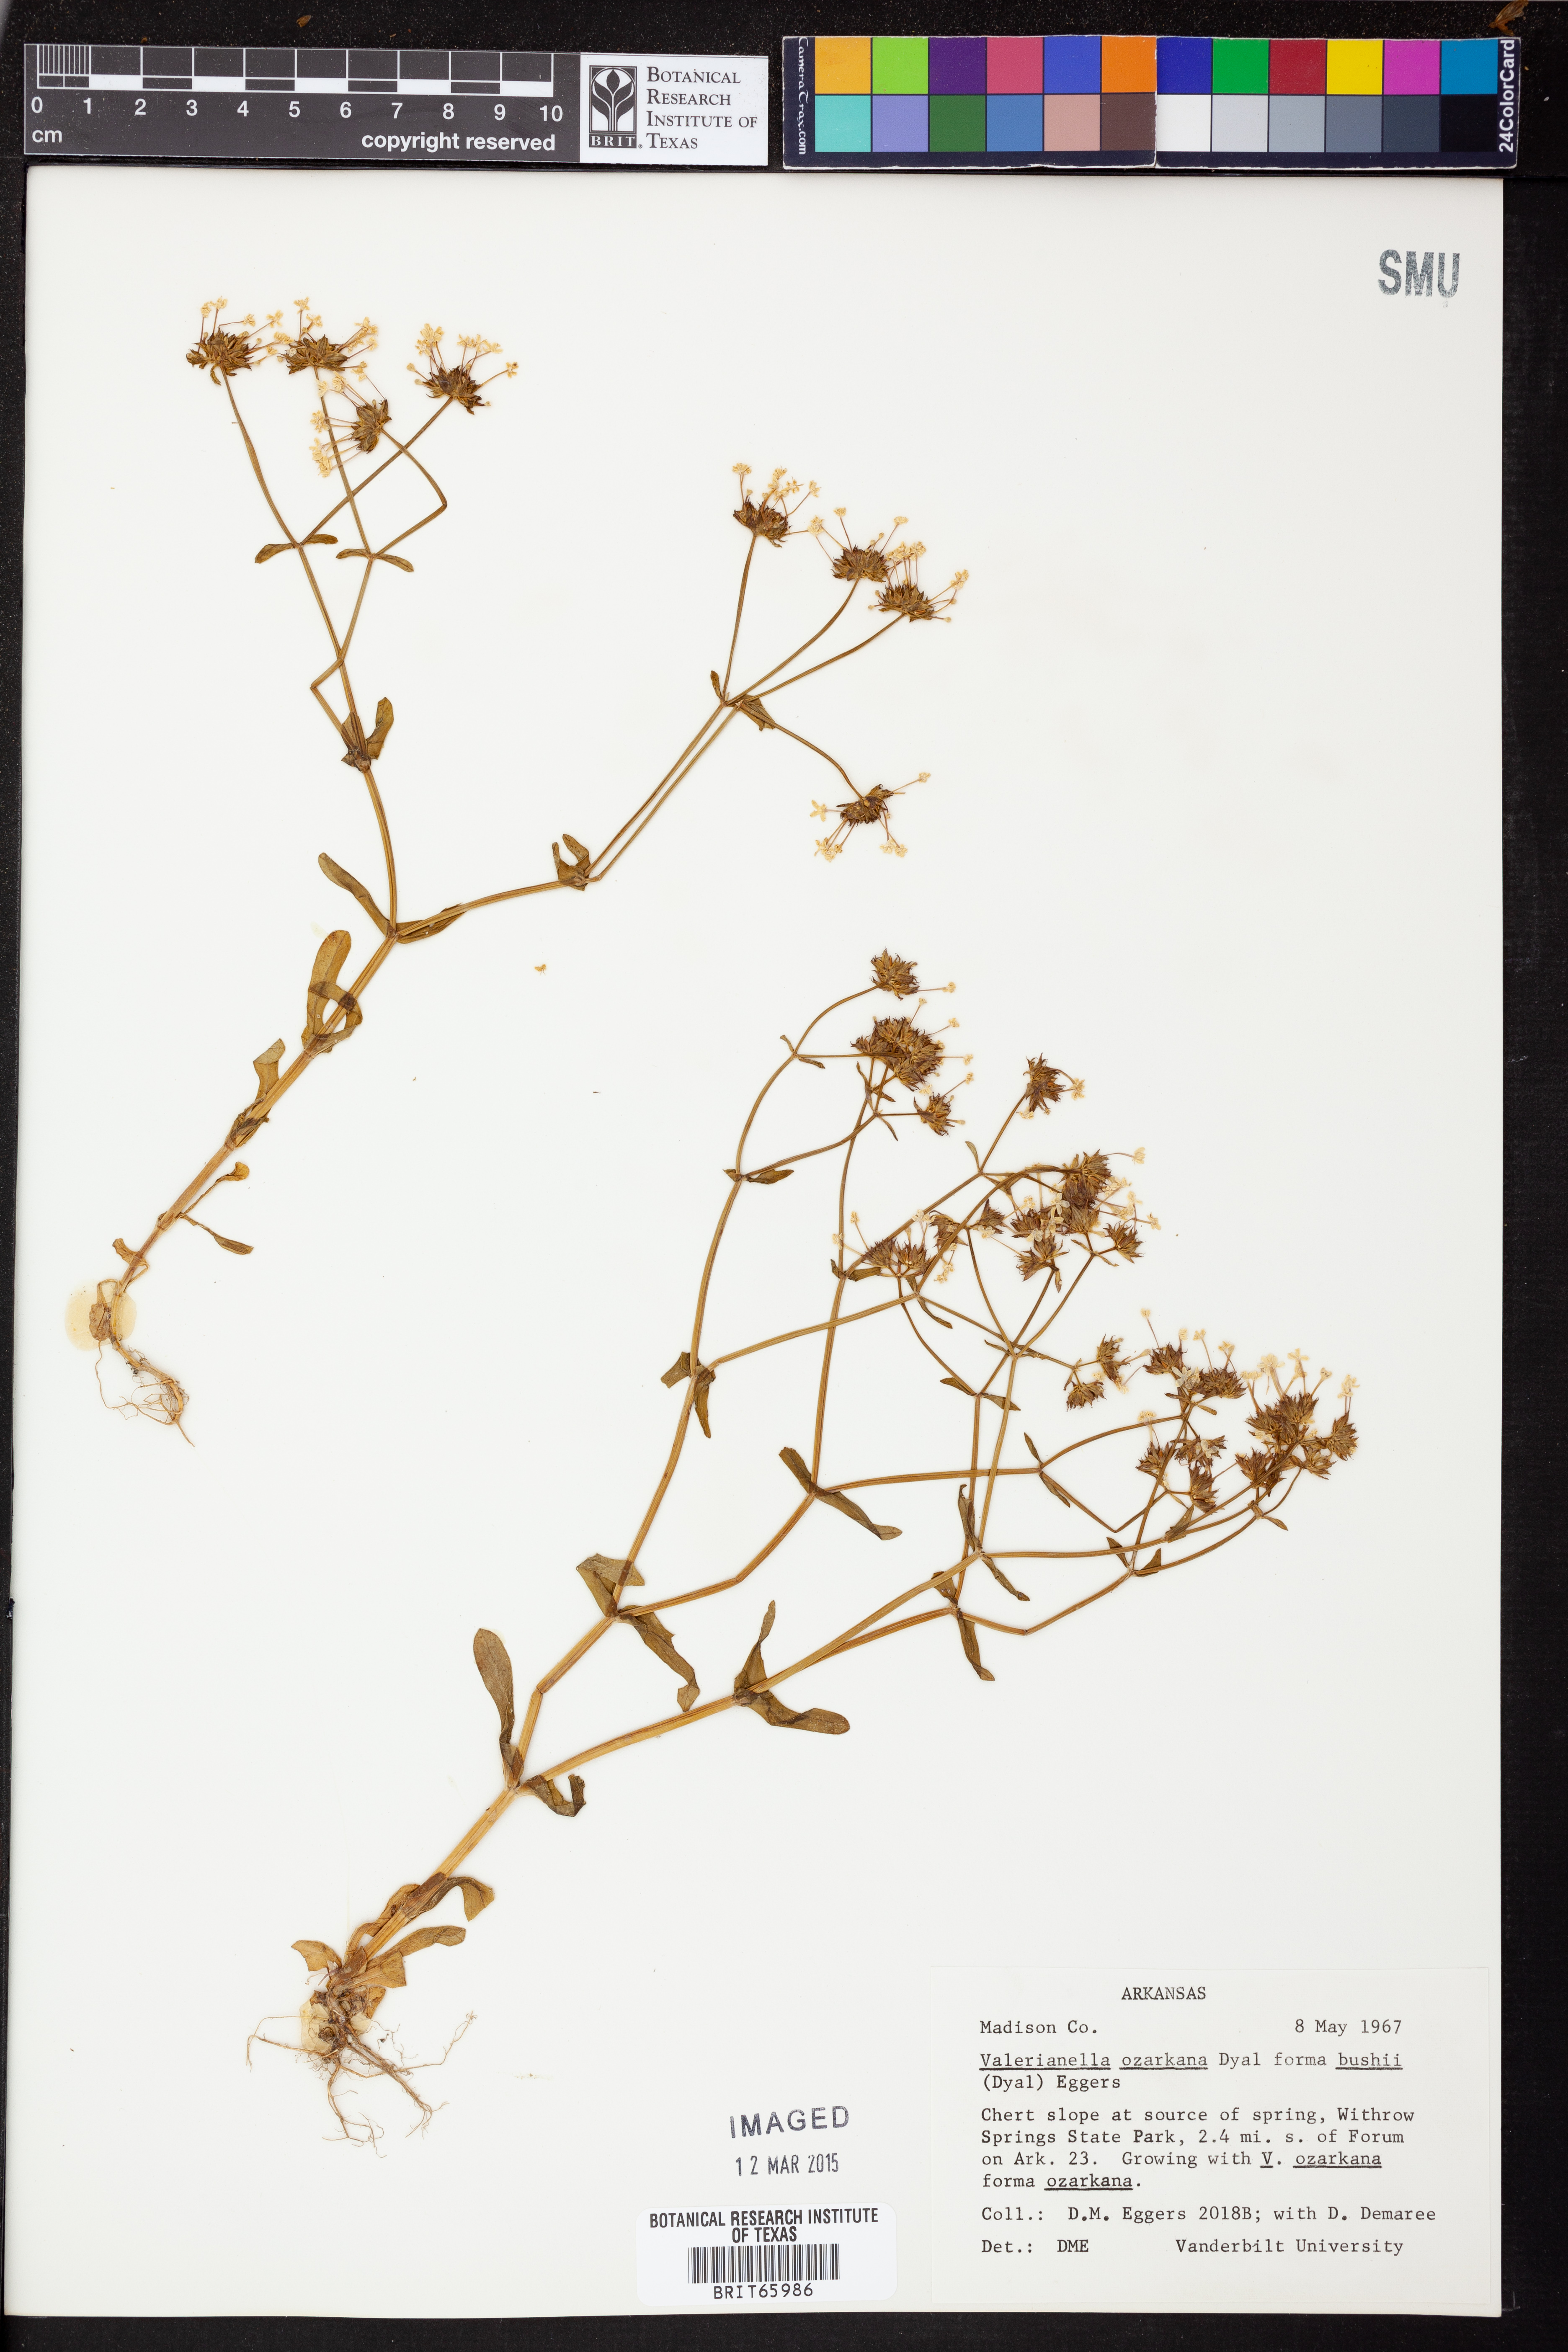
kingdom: Plantae
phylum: Tracheophyta
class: Magnoliopsida
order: Dipsacales
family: Caprifoliaceae
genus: Valerianella
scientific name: Valerianella ozarkana
